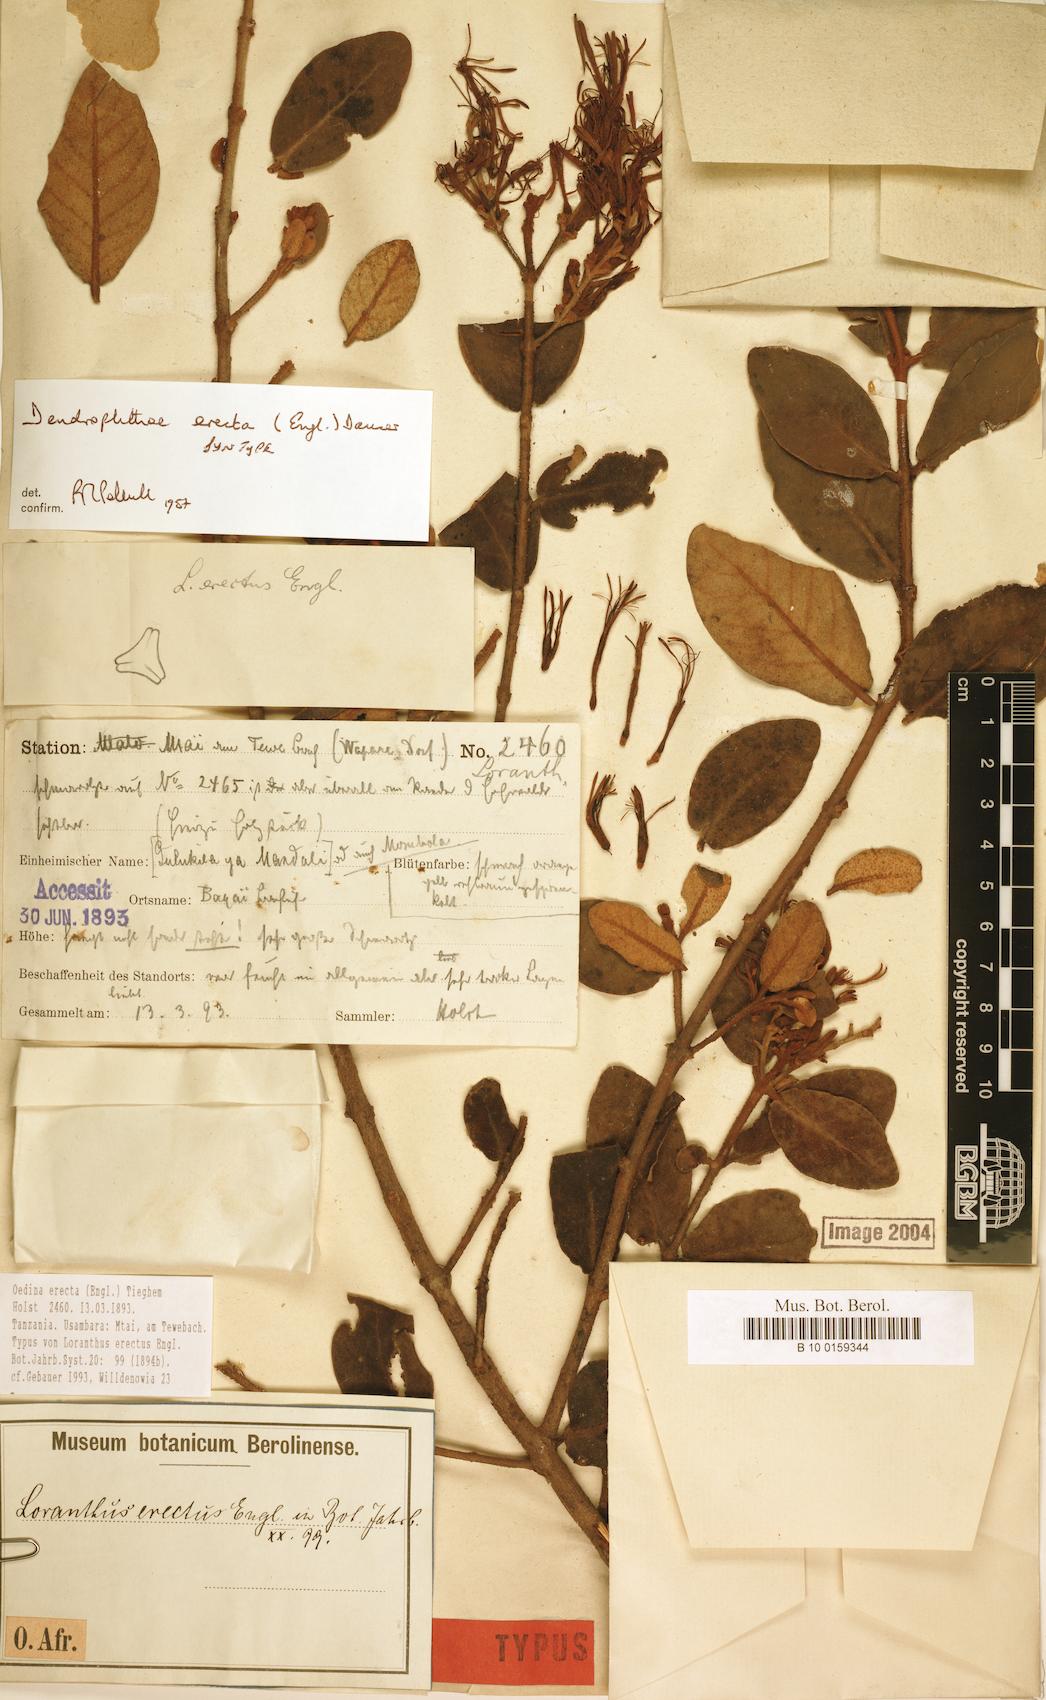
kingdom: Plantae
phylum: Tracheophyta
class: Magnoliopsida
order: Santalales
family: Loranthaceae
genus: Oedina
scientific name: Oedina erecta
